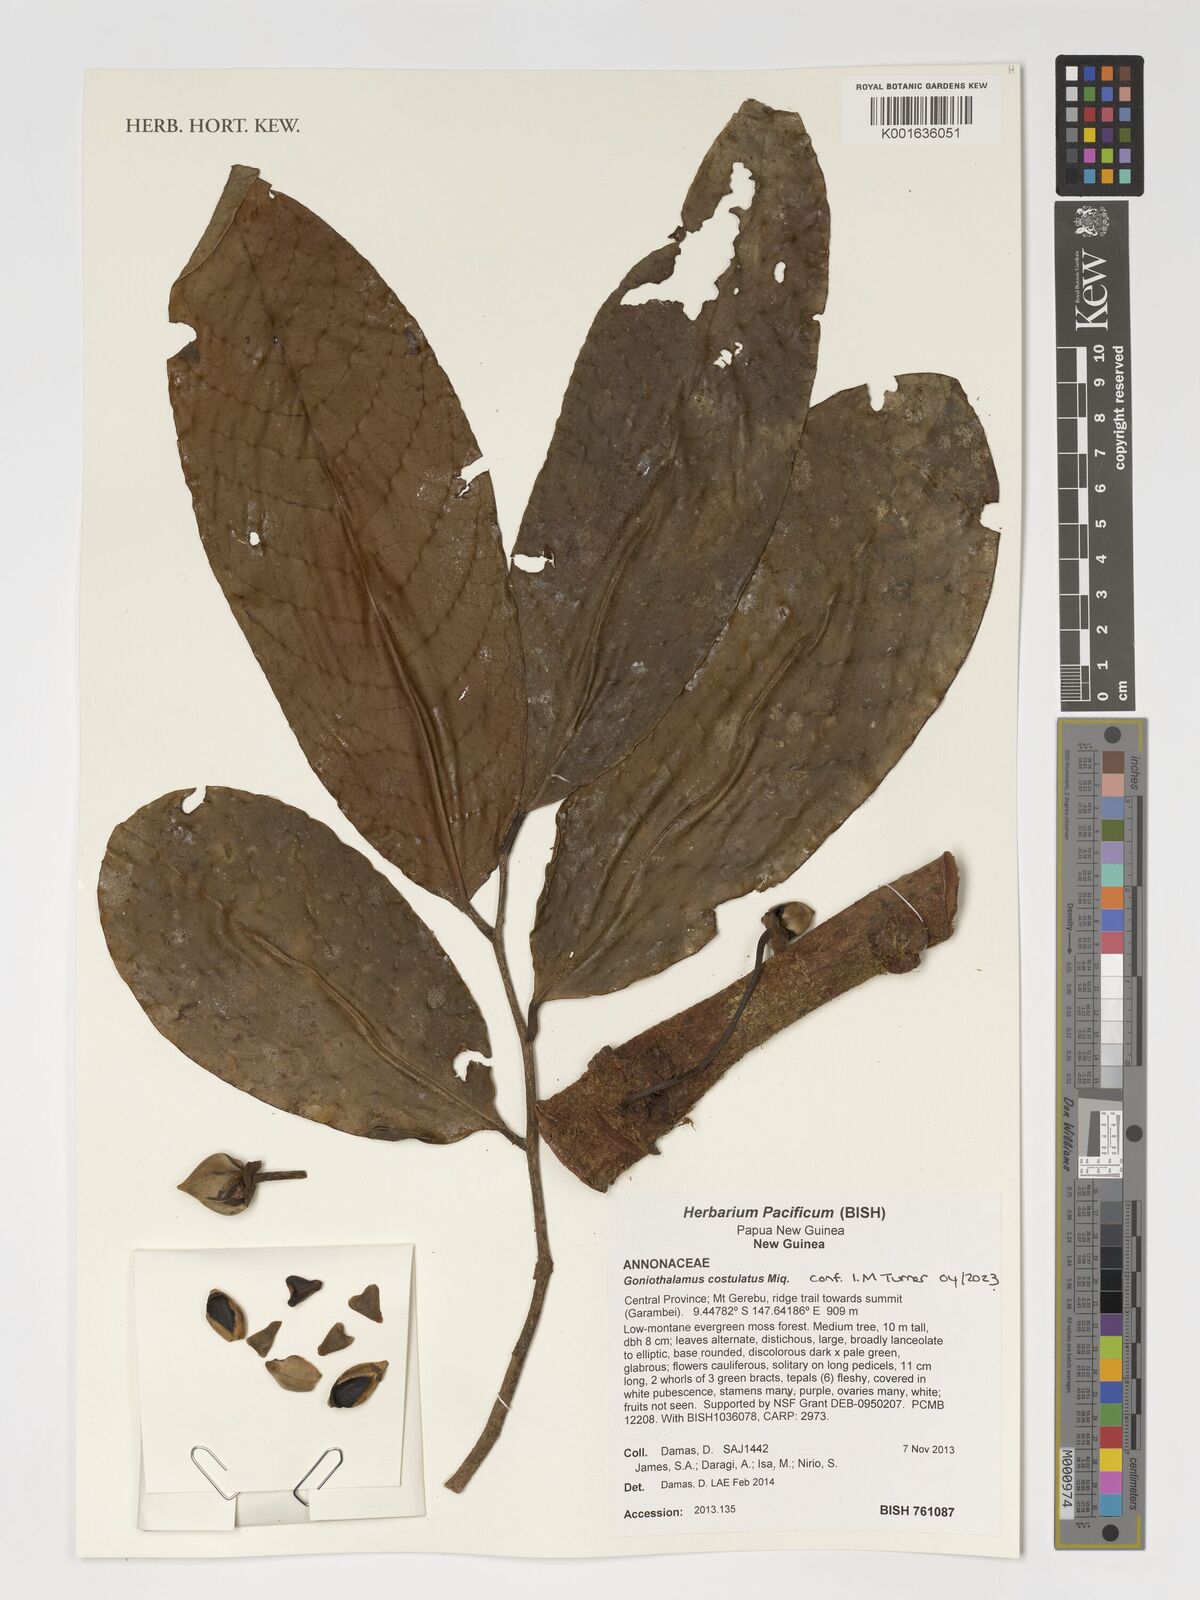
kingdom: Plantae
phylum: Tracheophyta
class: Magnoliopsida
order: Magnoliales
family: Annonaceae
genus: Goniothalamus
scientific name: Goniothalamus costulatus
